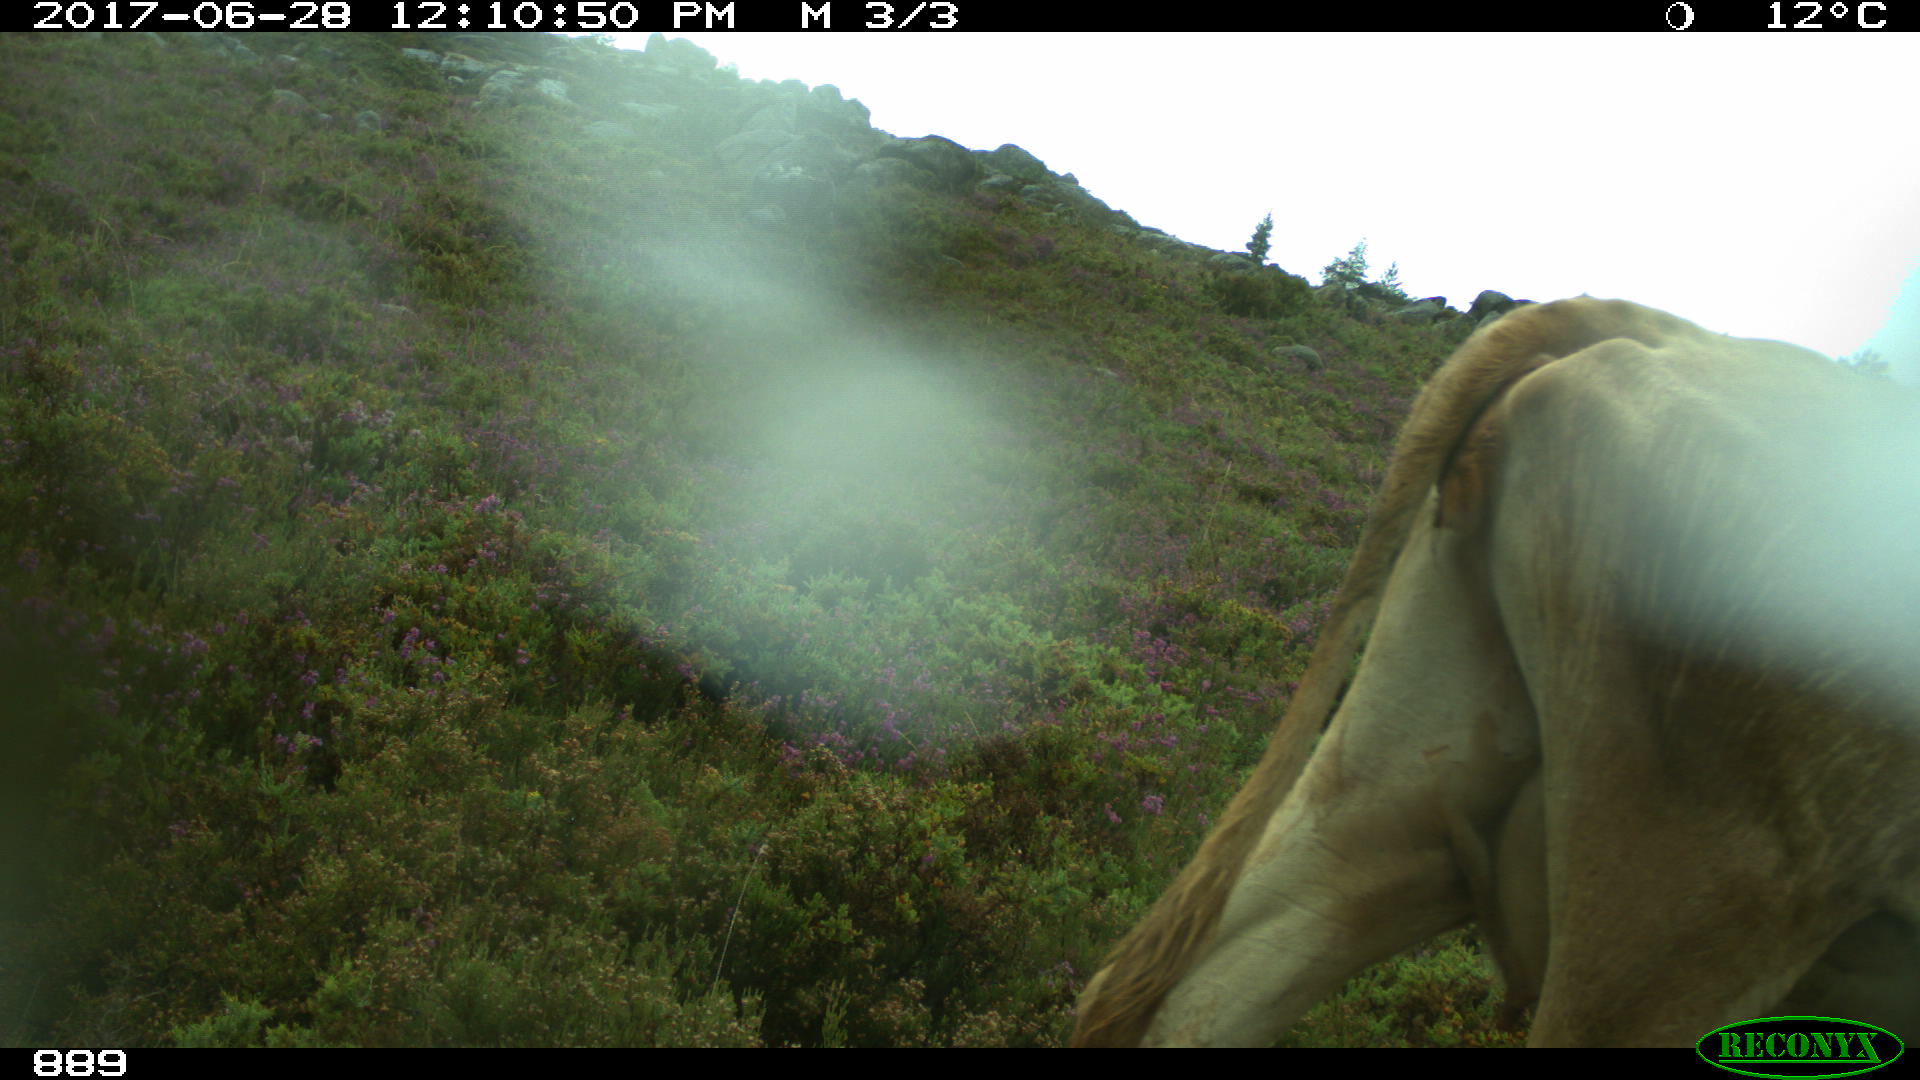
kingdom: Animalia
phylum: Chordata
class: Mammalia
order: Artiodactyla
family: Bovidae
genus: Bos
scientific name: Bos taurus
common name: Domesticated cattle
